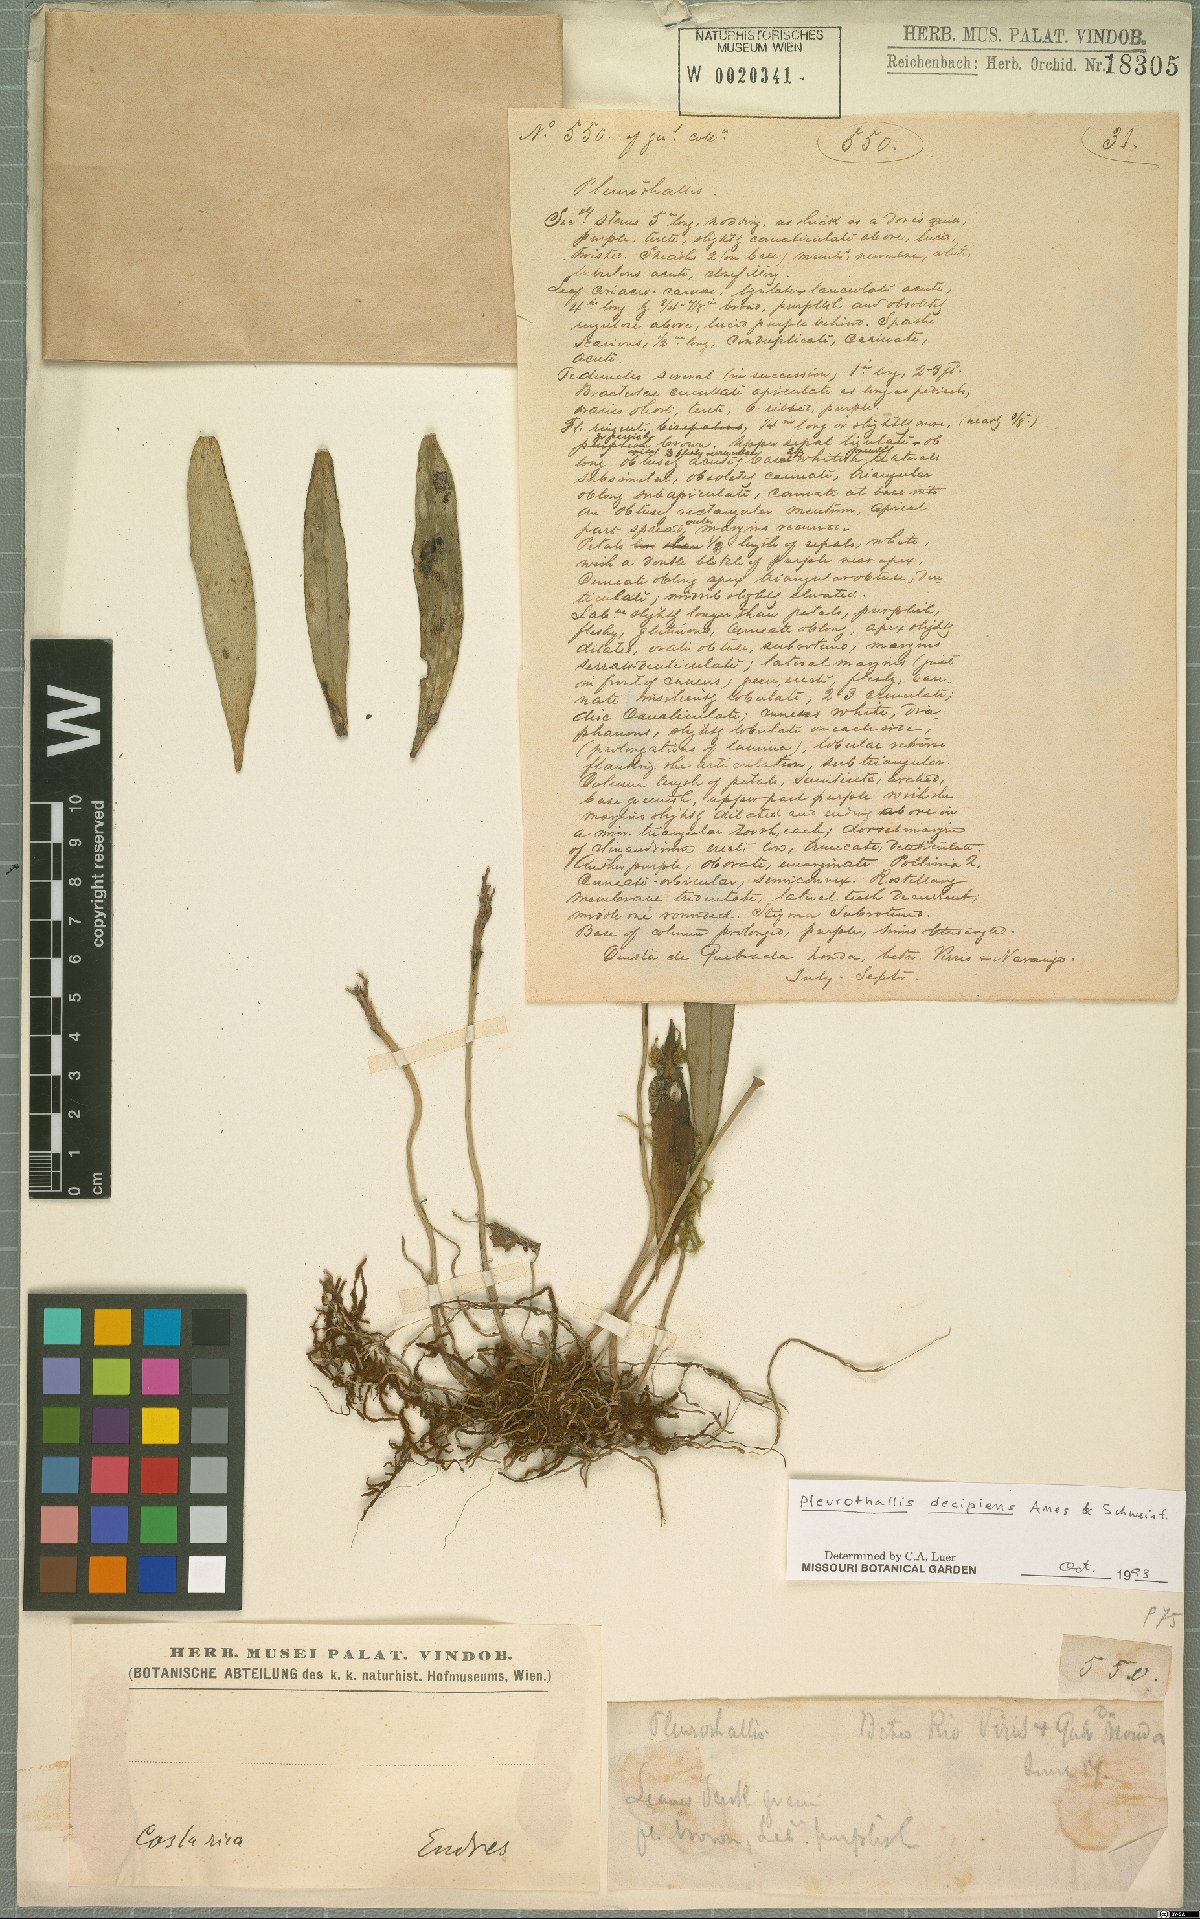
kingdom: Plantae
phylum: Tracheophyta
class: Liliopsida
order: Asparagales
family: Orchidaceae
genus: Acianthera
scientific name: Acianthera decipiens
